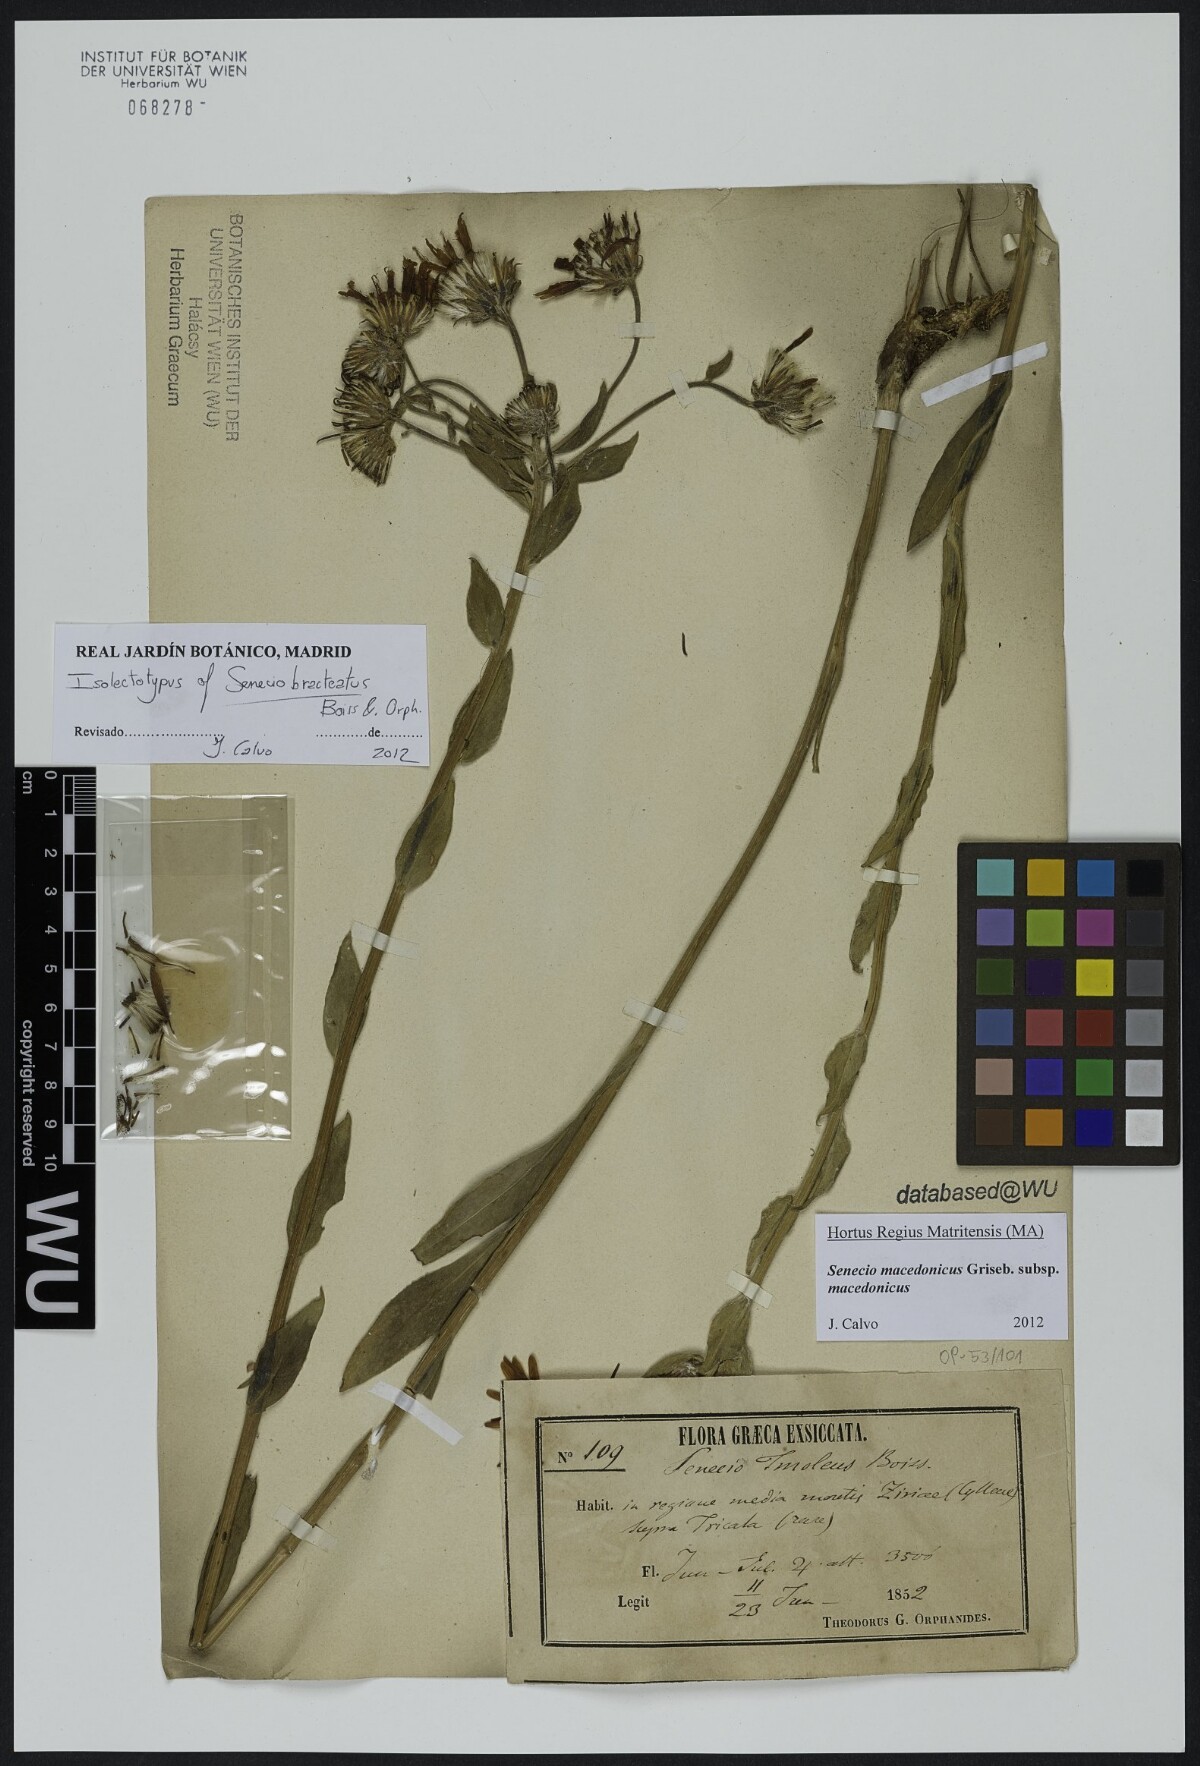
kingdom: Plantae
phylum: Tracheophyta
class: Magnoliopsida
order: Asterales
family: Asteraceae
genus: Senecio
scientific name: Senecio macedonicus
